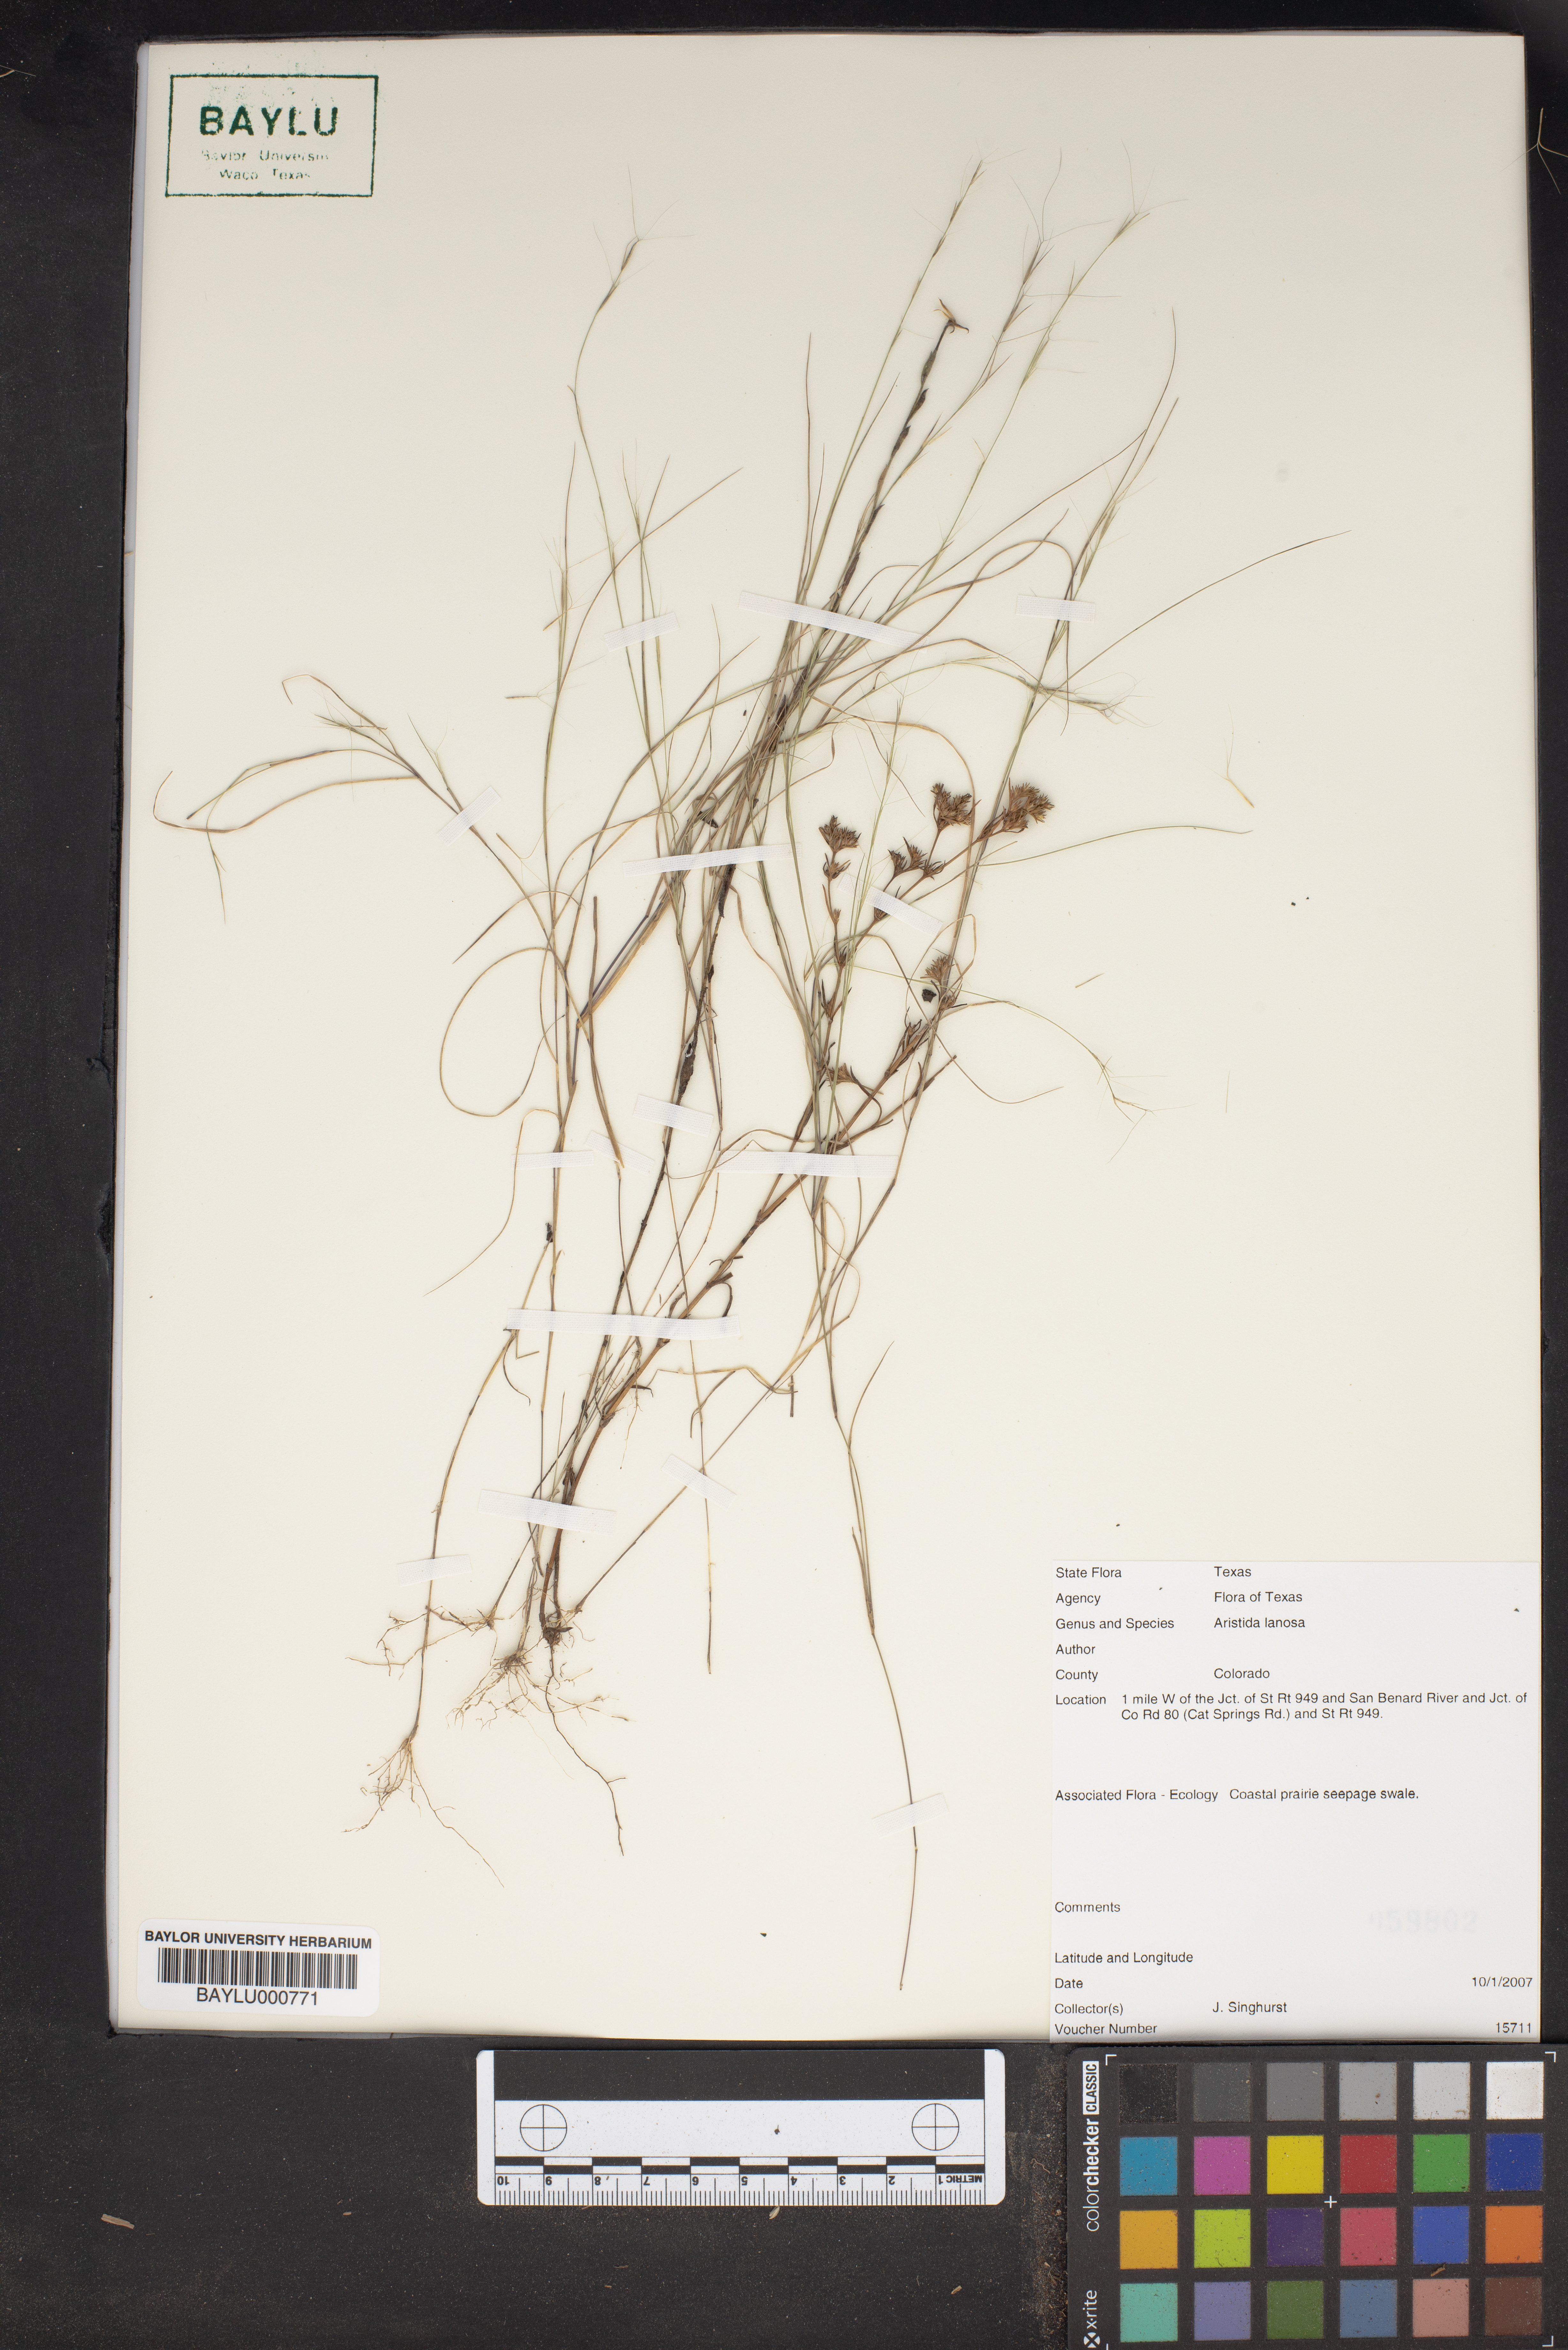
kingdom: Plantae
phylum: Tracheophyta
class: Liliopsida
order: Poales
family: Poaceae
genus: Aristida
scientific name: Aristida lanosa
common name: Woolly three-awn
